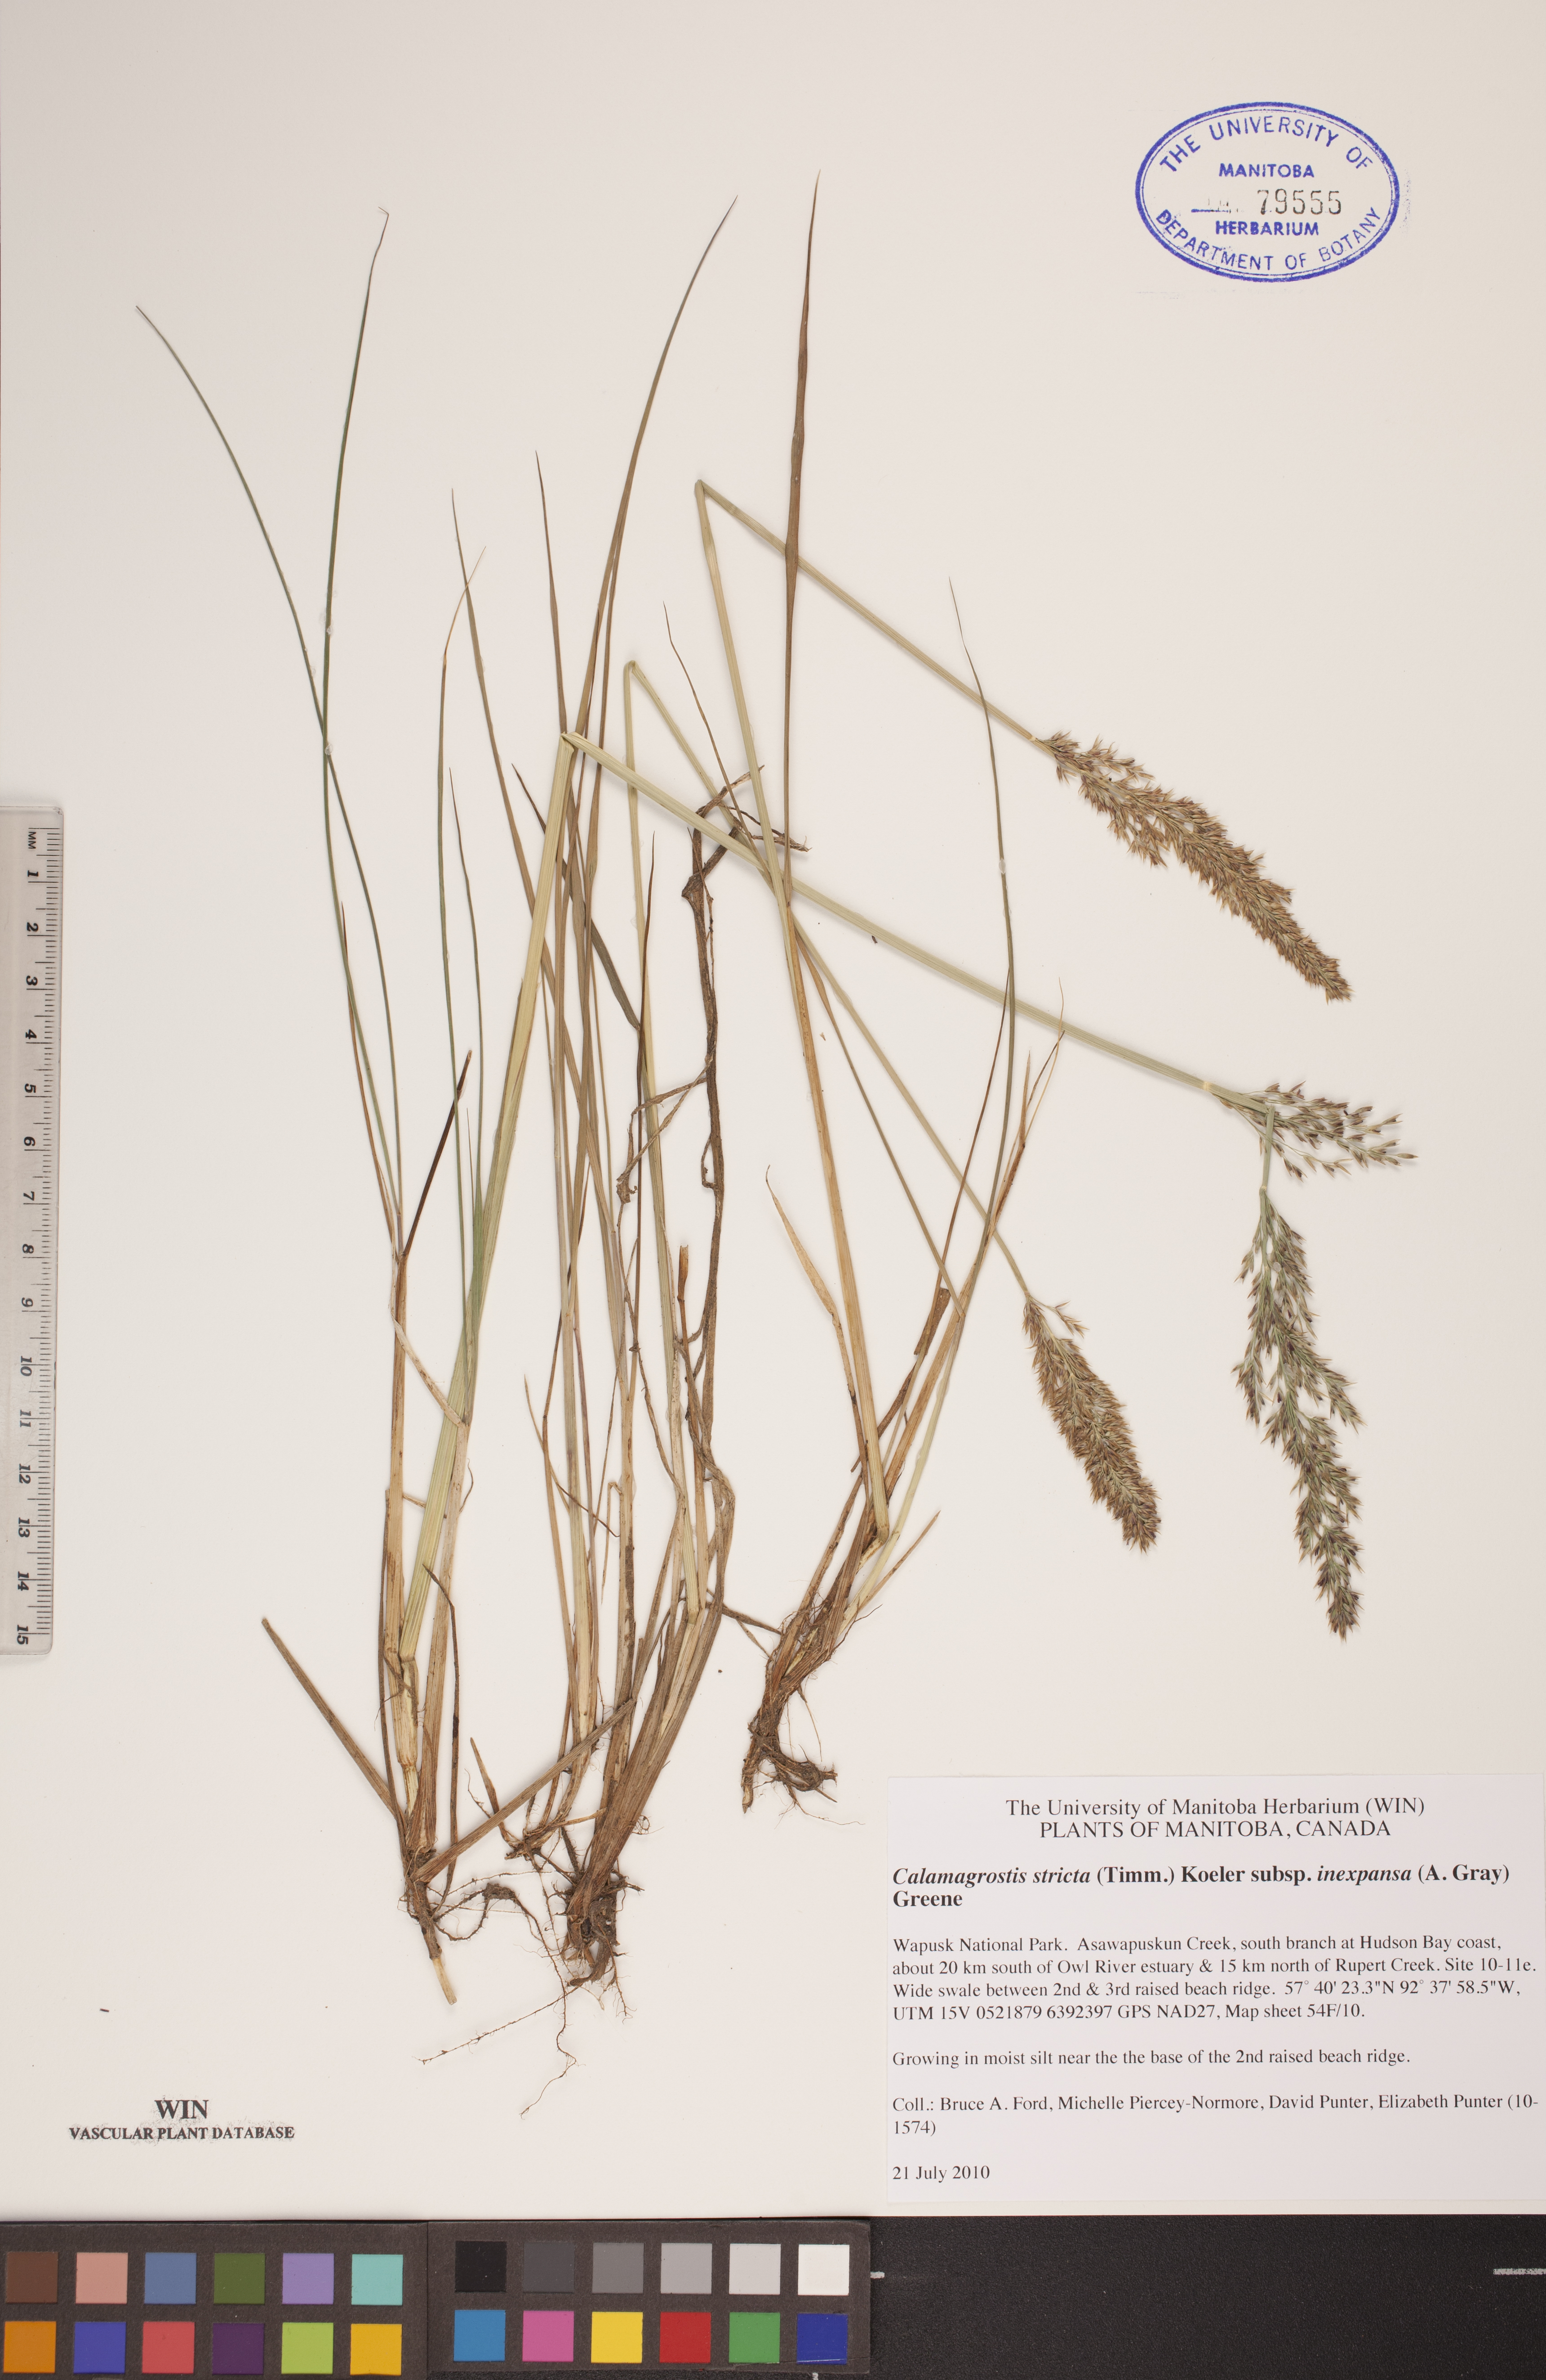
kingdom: Plantae
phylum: Tracheophyta
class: Liliopsida
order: Poales
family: Poaceae
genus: Calamagrostis
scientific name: Calamagrostis inexpansa
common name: Northern reedgrass
